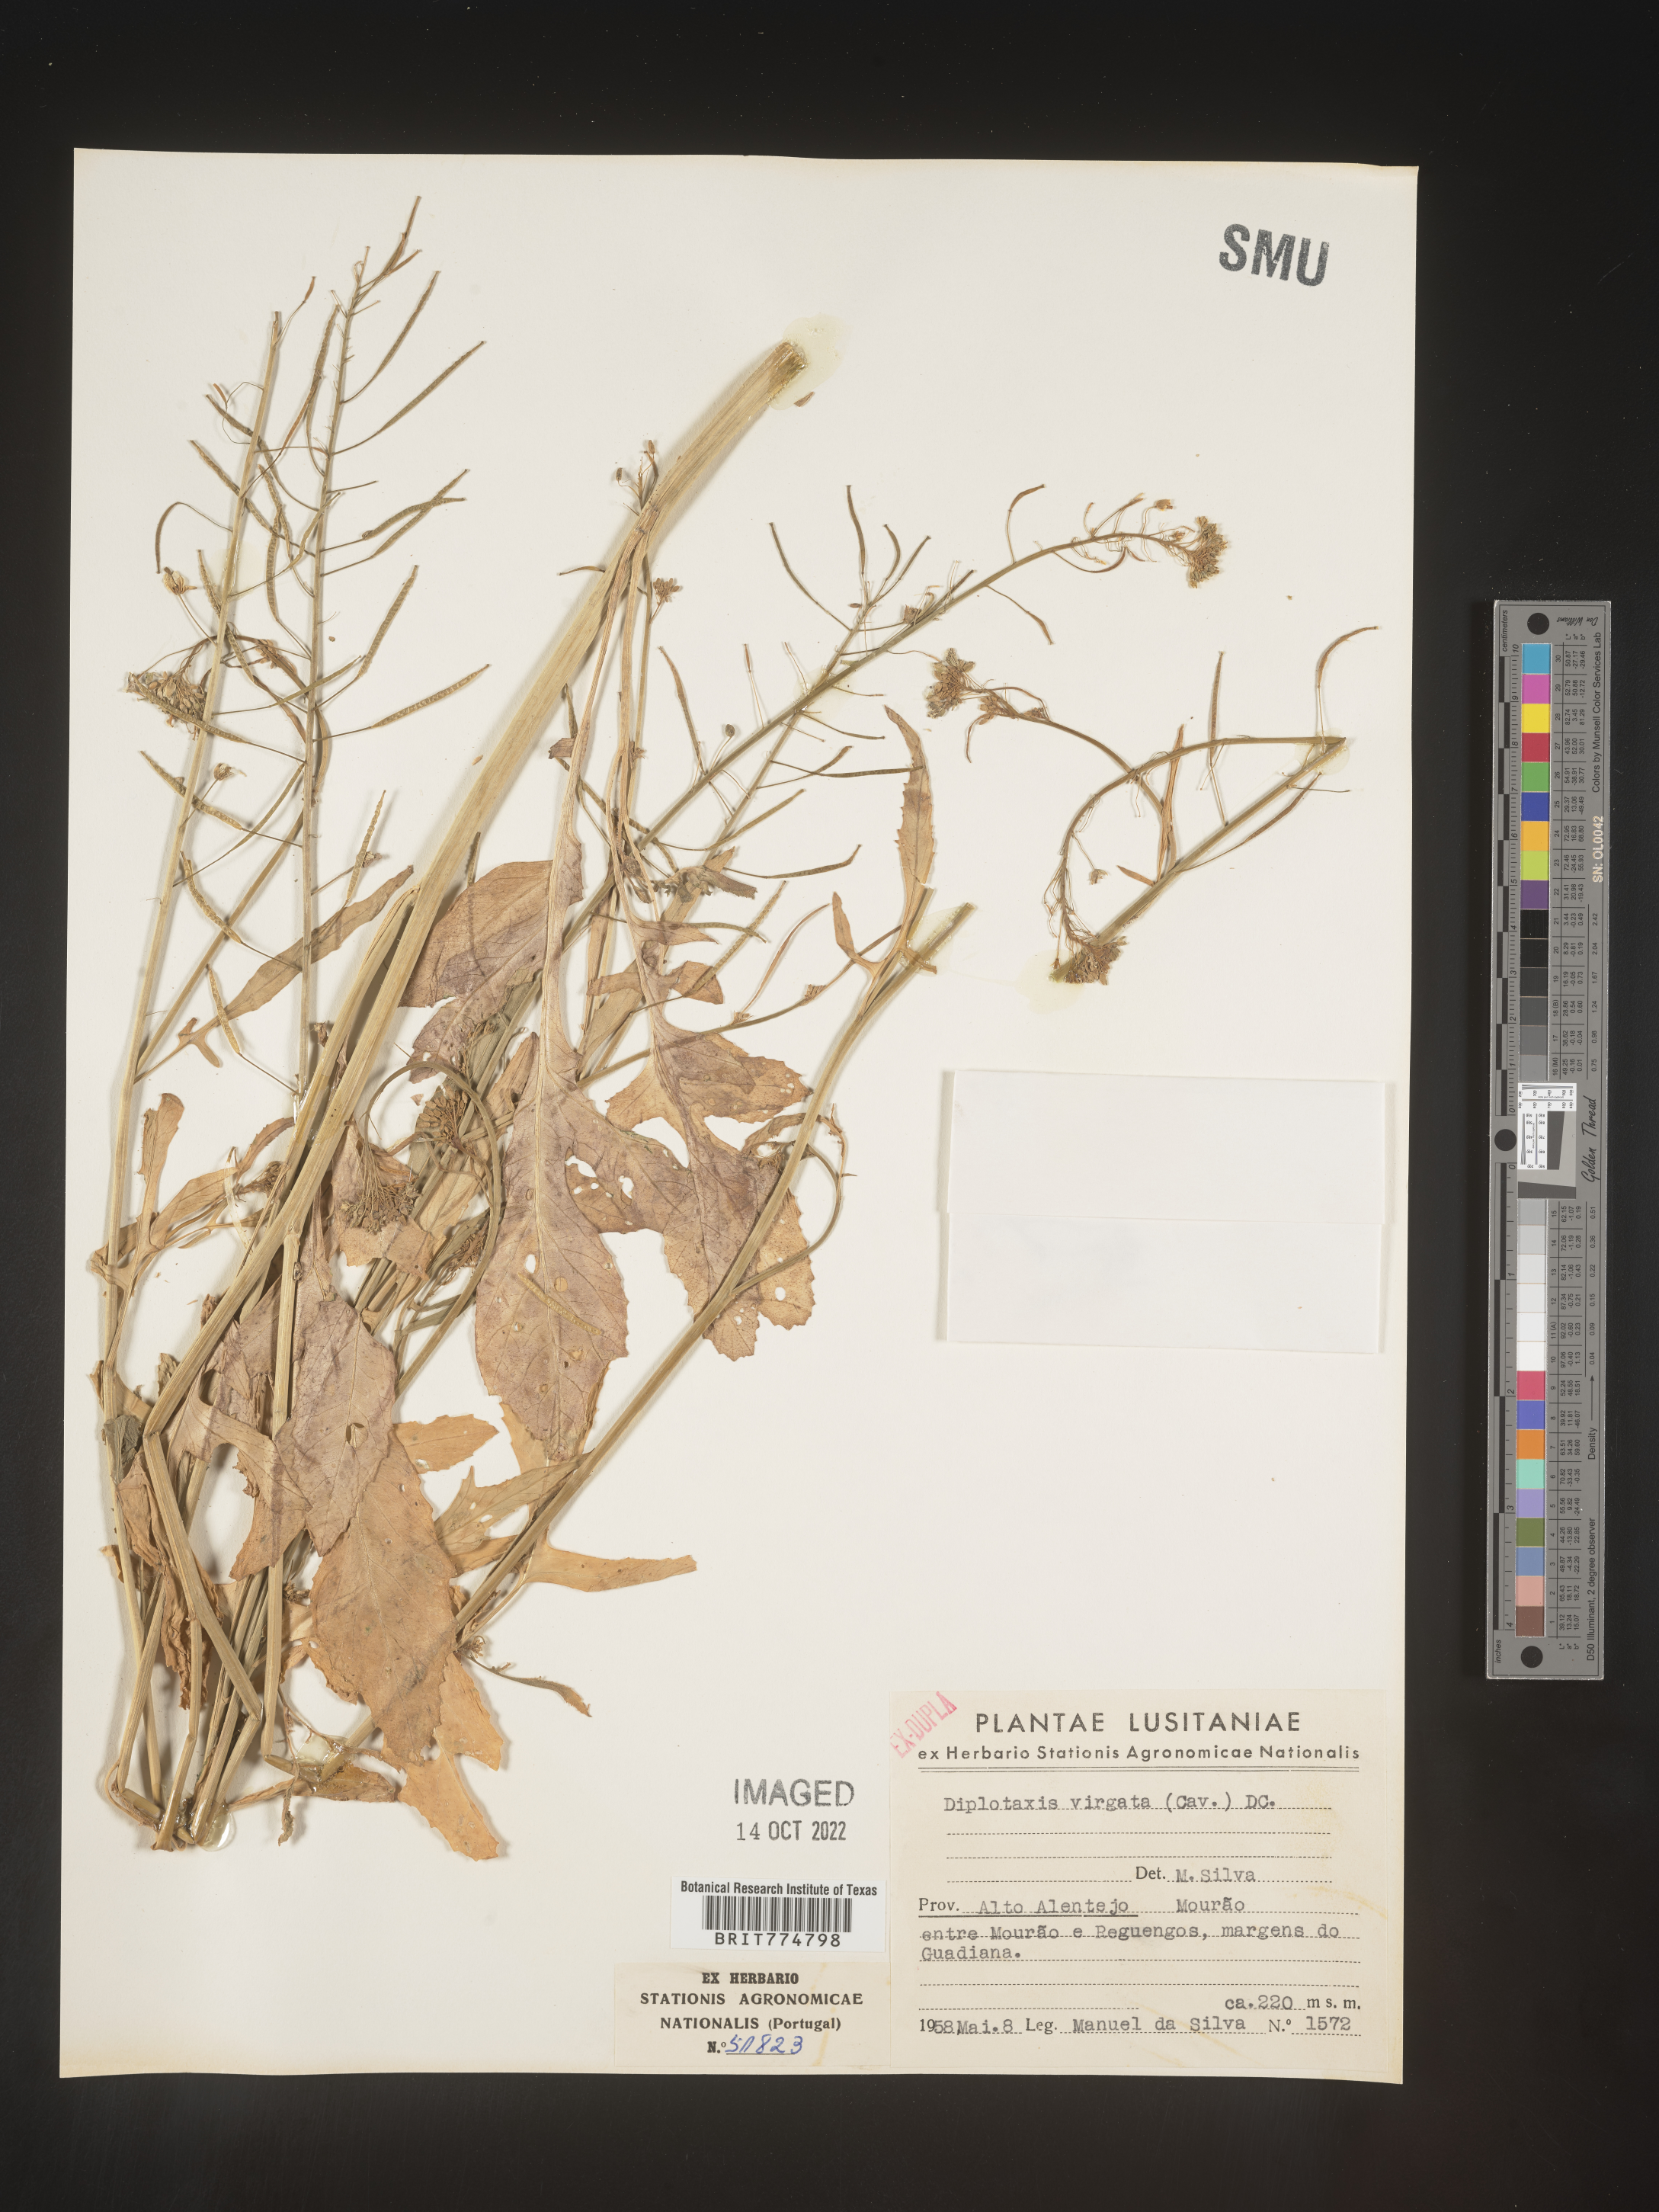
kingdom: Plantae
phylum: Tracheophyta
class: Magnoliopsida
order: Brassicales
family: Brassicaceae
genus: Diplotaxis
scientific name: Diplotaxis
